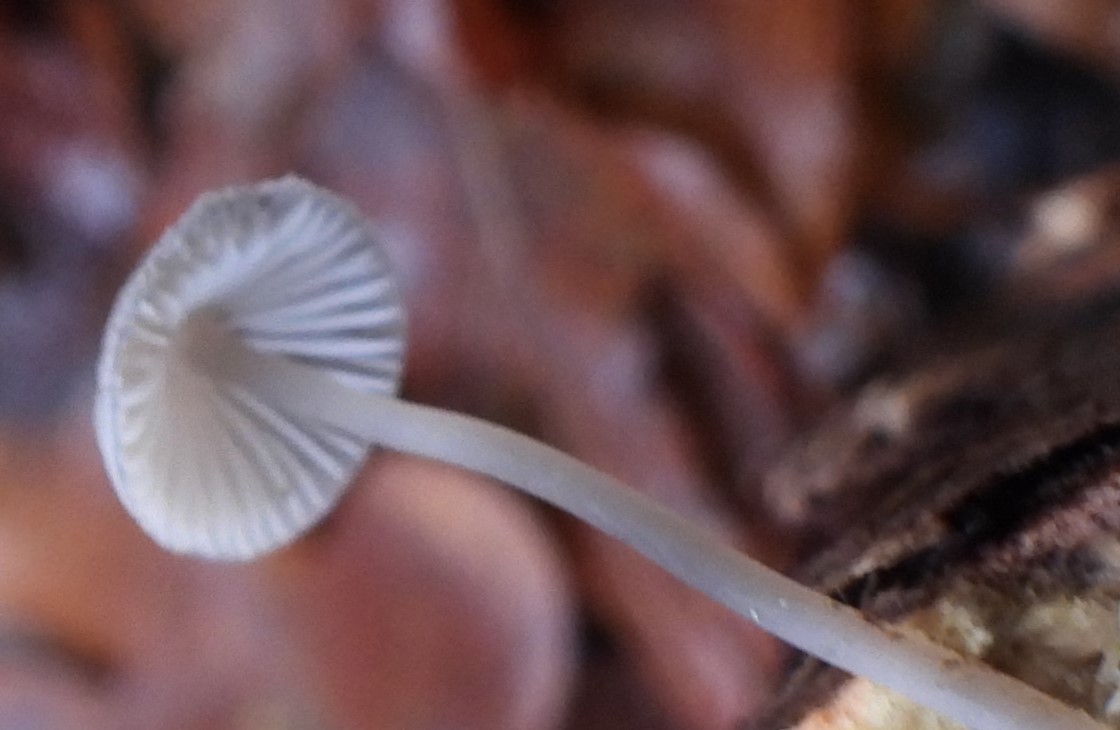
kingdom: Fungi
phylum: Basidiomycota
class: Agaricomycetes
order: Agaricales
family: Mycenaceae
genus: Mycena
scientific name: Mycena vitilis
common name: blankstokket huesvamp
